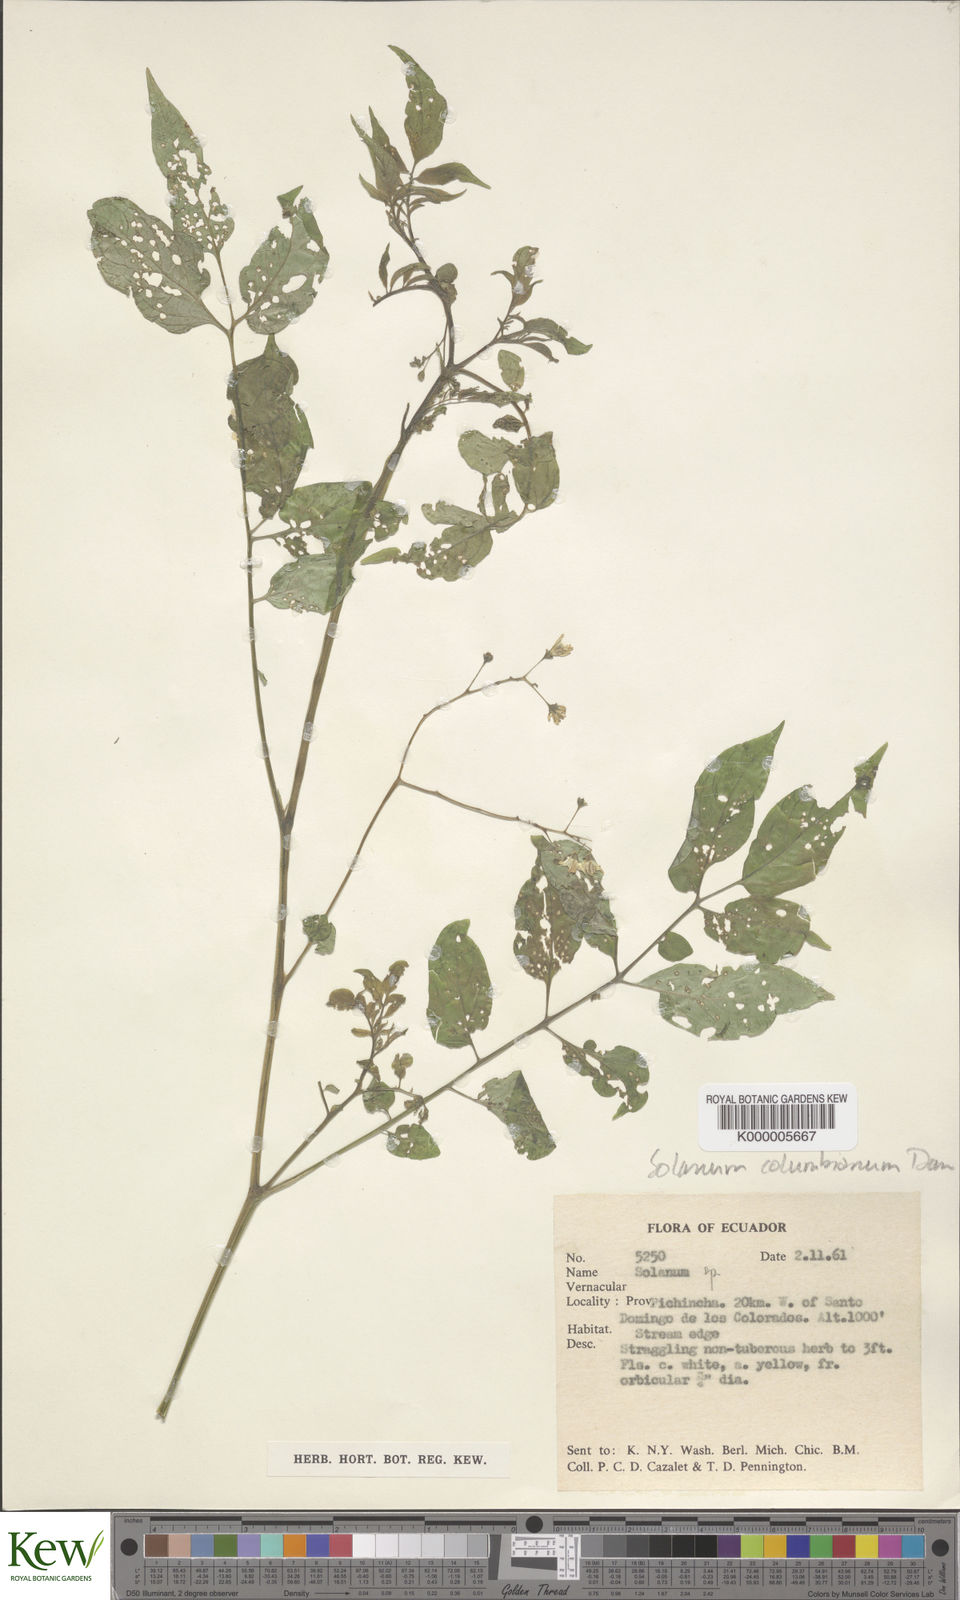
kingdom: Plantae
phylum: Tracheophyta
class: Magnoliopsida
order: Solanales
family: Solanaceae
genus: Solanum
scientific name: Solanum colombianum
